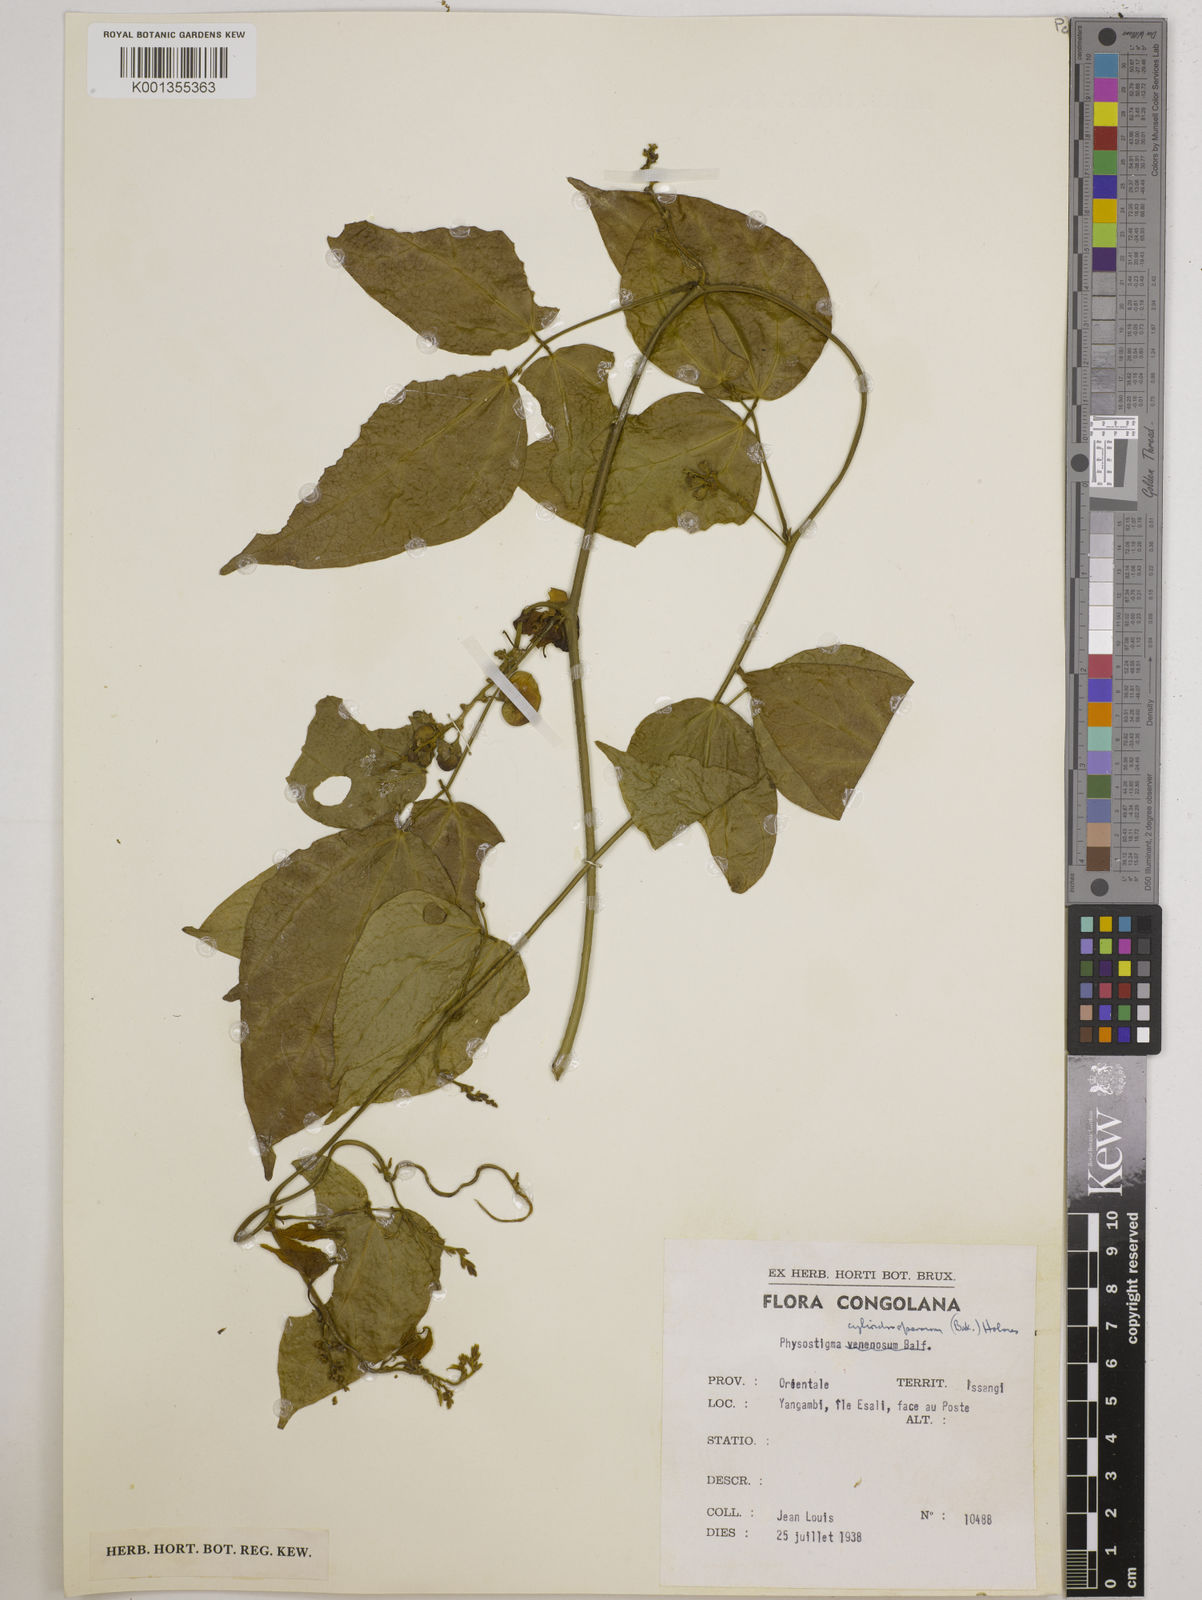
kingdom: Plantae
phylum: Tracheophyta
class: Magnoliopsida
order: Fabales
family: Fabaceae
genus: Physostigma
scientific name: Physostigma cylindrospermum
